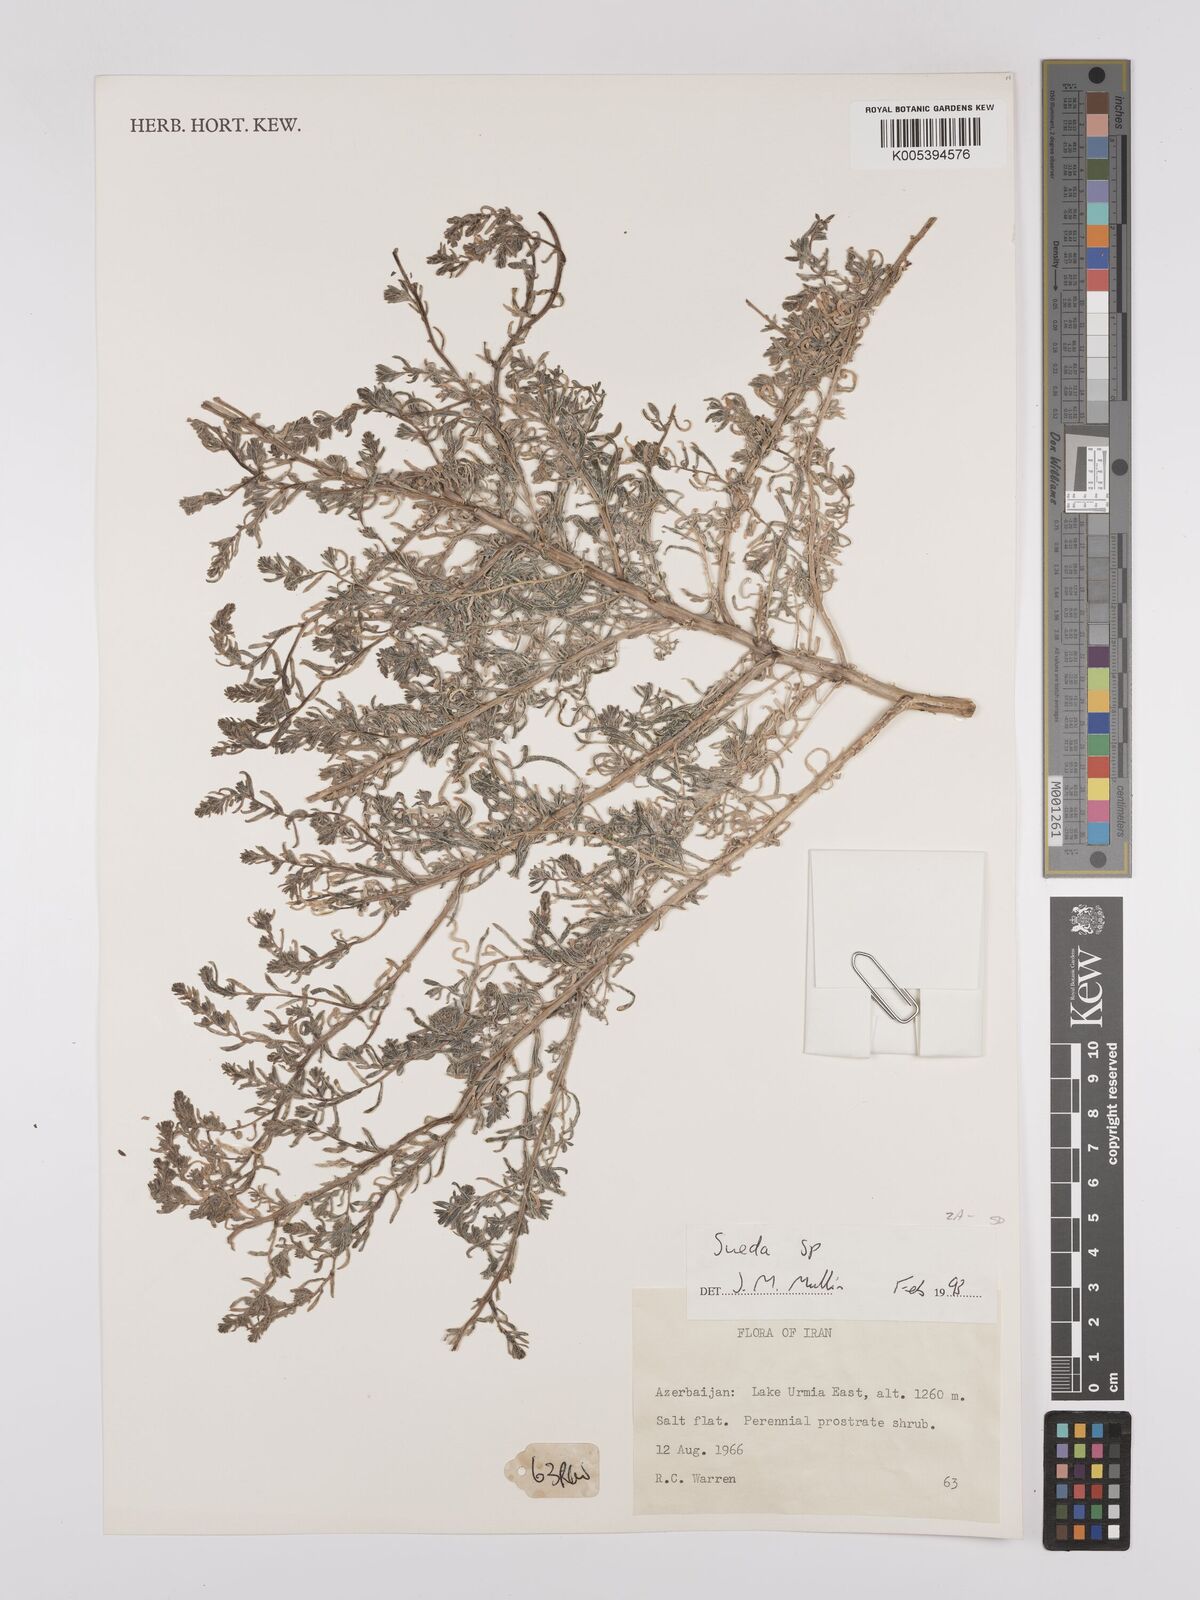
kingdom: Plantae
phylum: Tracheophyta
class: Magnoliopsida
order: Caryophyllales
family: Amaranthaceae
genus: Suaeda
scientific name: Suaeda
